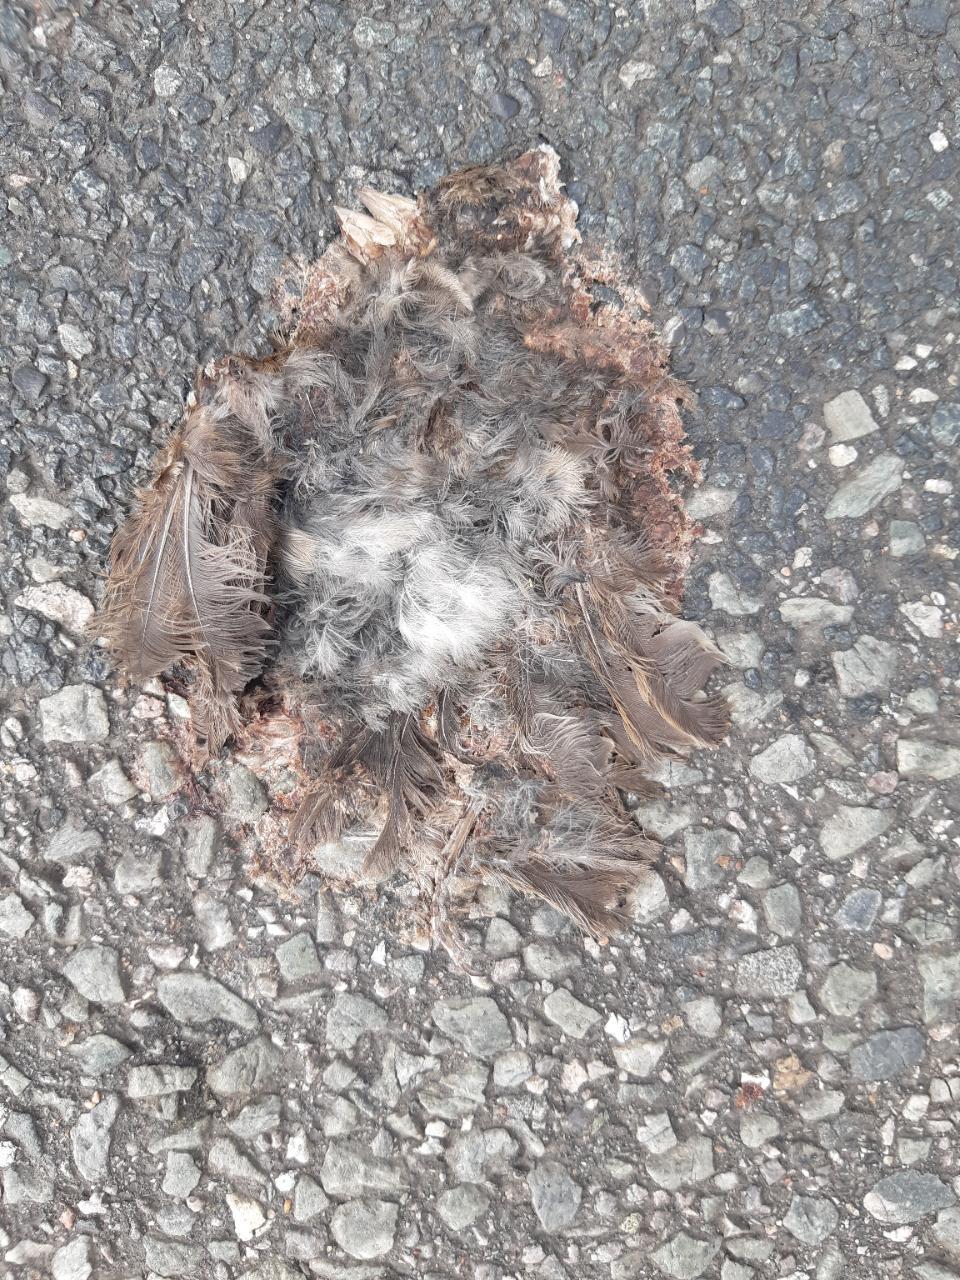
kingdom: Animalia
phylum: Chordata
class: Aves
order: Passeriformes
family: Passeridae
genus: Passer
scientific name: Passer domesticus
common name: House sparrow
